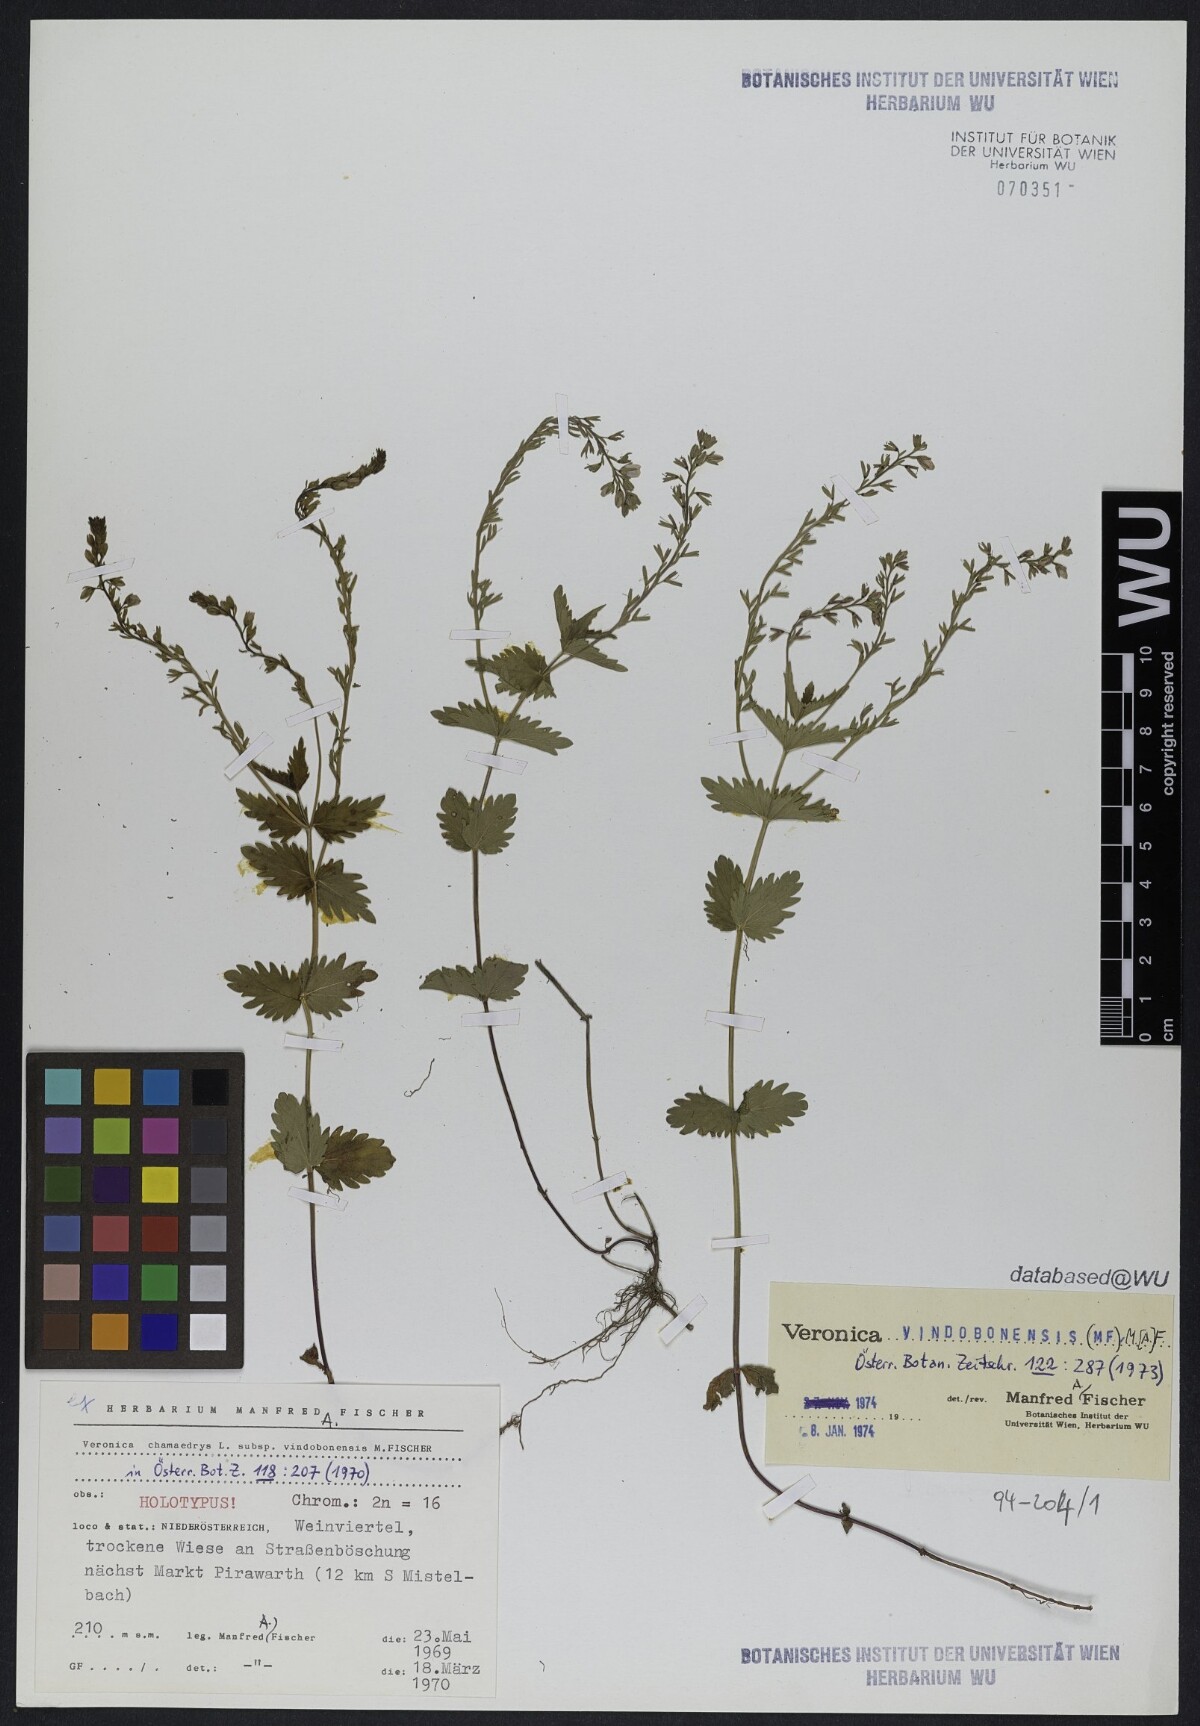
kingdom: Plantae
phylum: Tracheophyta
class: Magnoliopsida
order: Lamiales
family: Plantaginaceae
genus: Veronica
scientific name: Veronica vindobonensis
